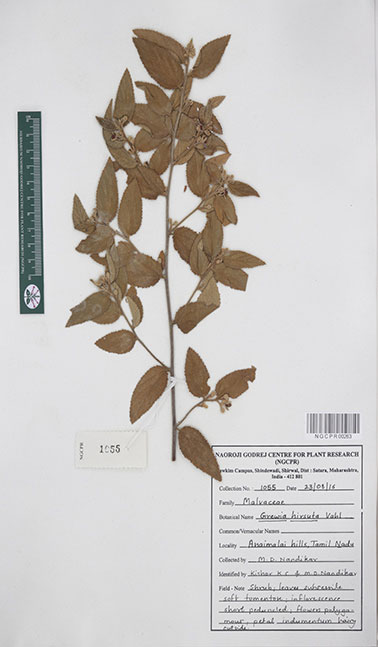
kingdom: Plantae
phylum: Tracheophyta
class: Magnoliopsida
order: Malvales
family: Malvaceae
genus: Grewia
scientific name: Grewia hirsuta
